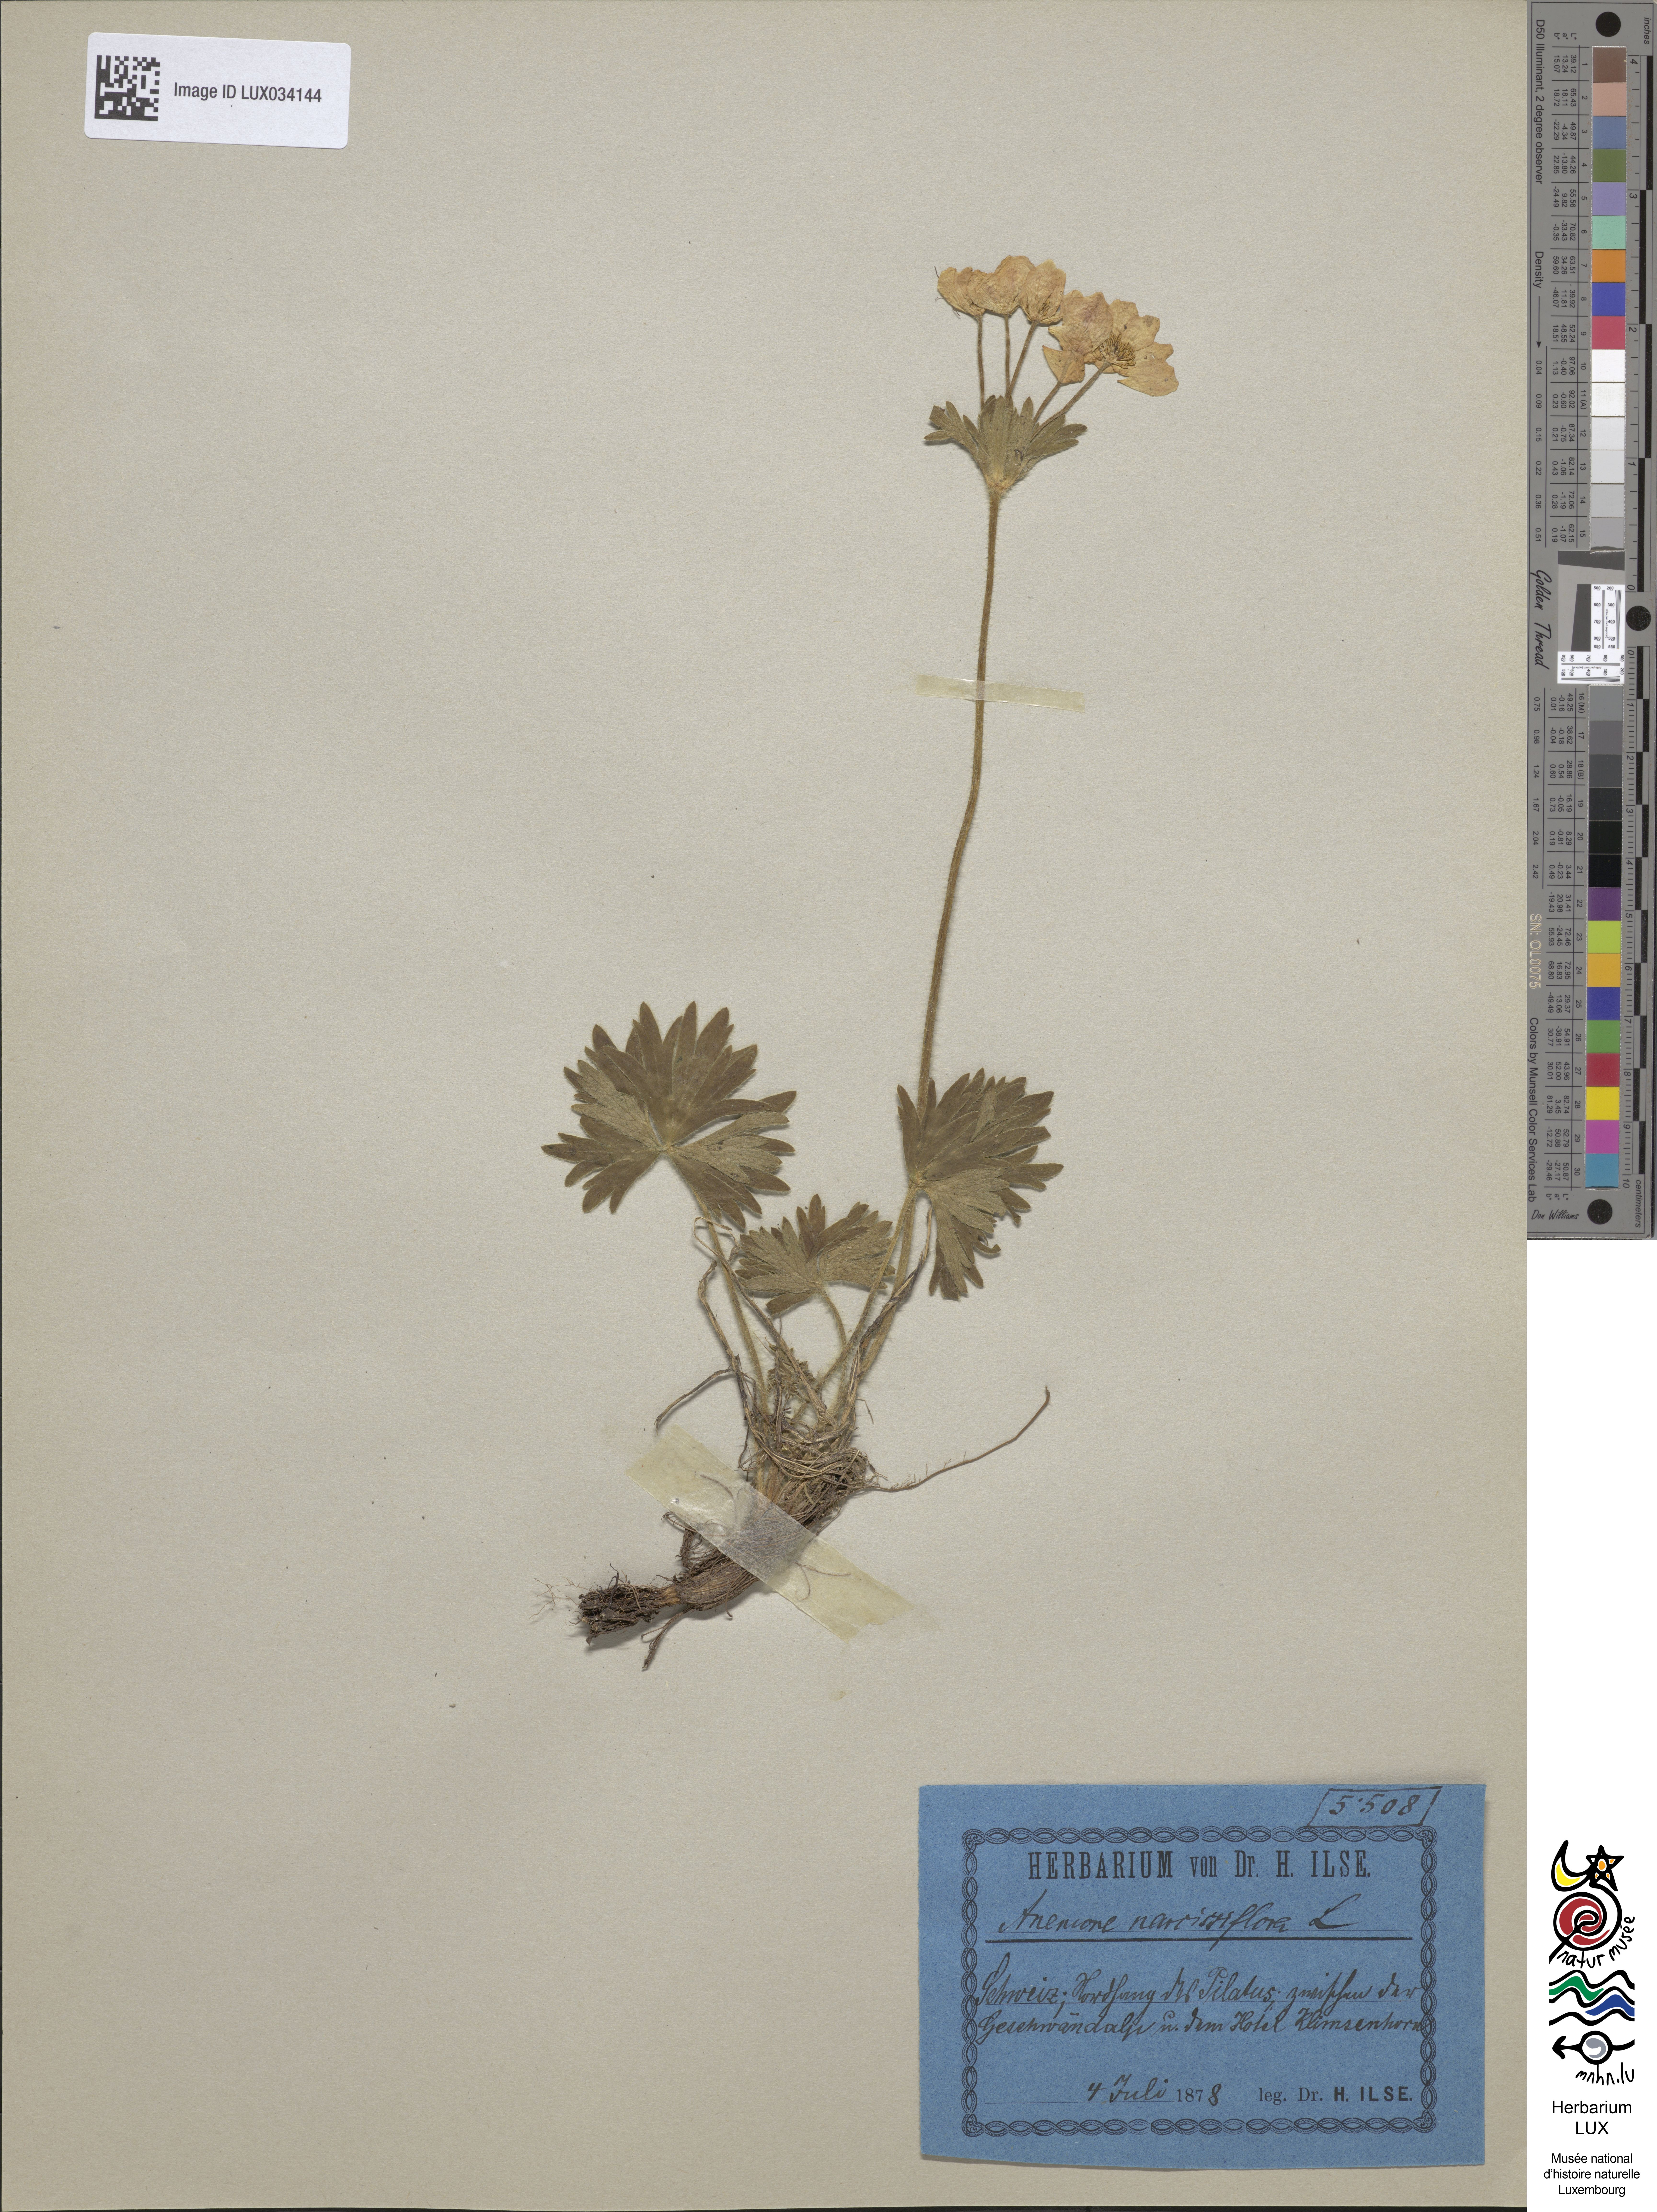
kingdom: Plantae
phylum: Tracheophyta
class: Magnoliopsida
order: Ranunculales
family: Ranunculaceae
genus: Anemone
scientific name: Anemone narcissifolia
